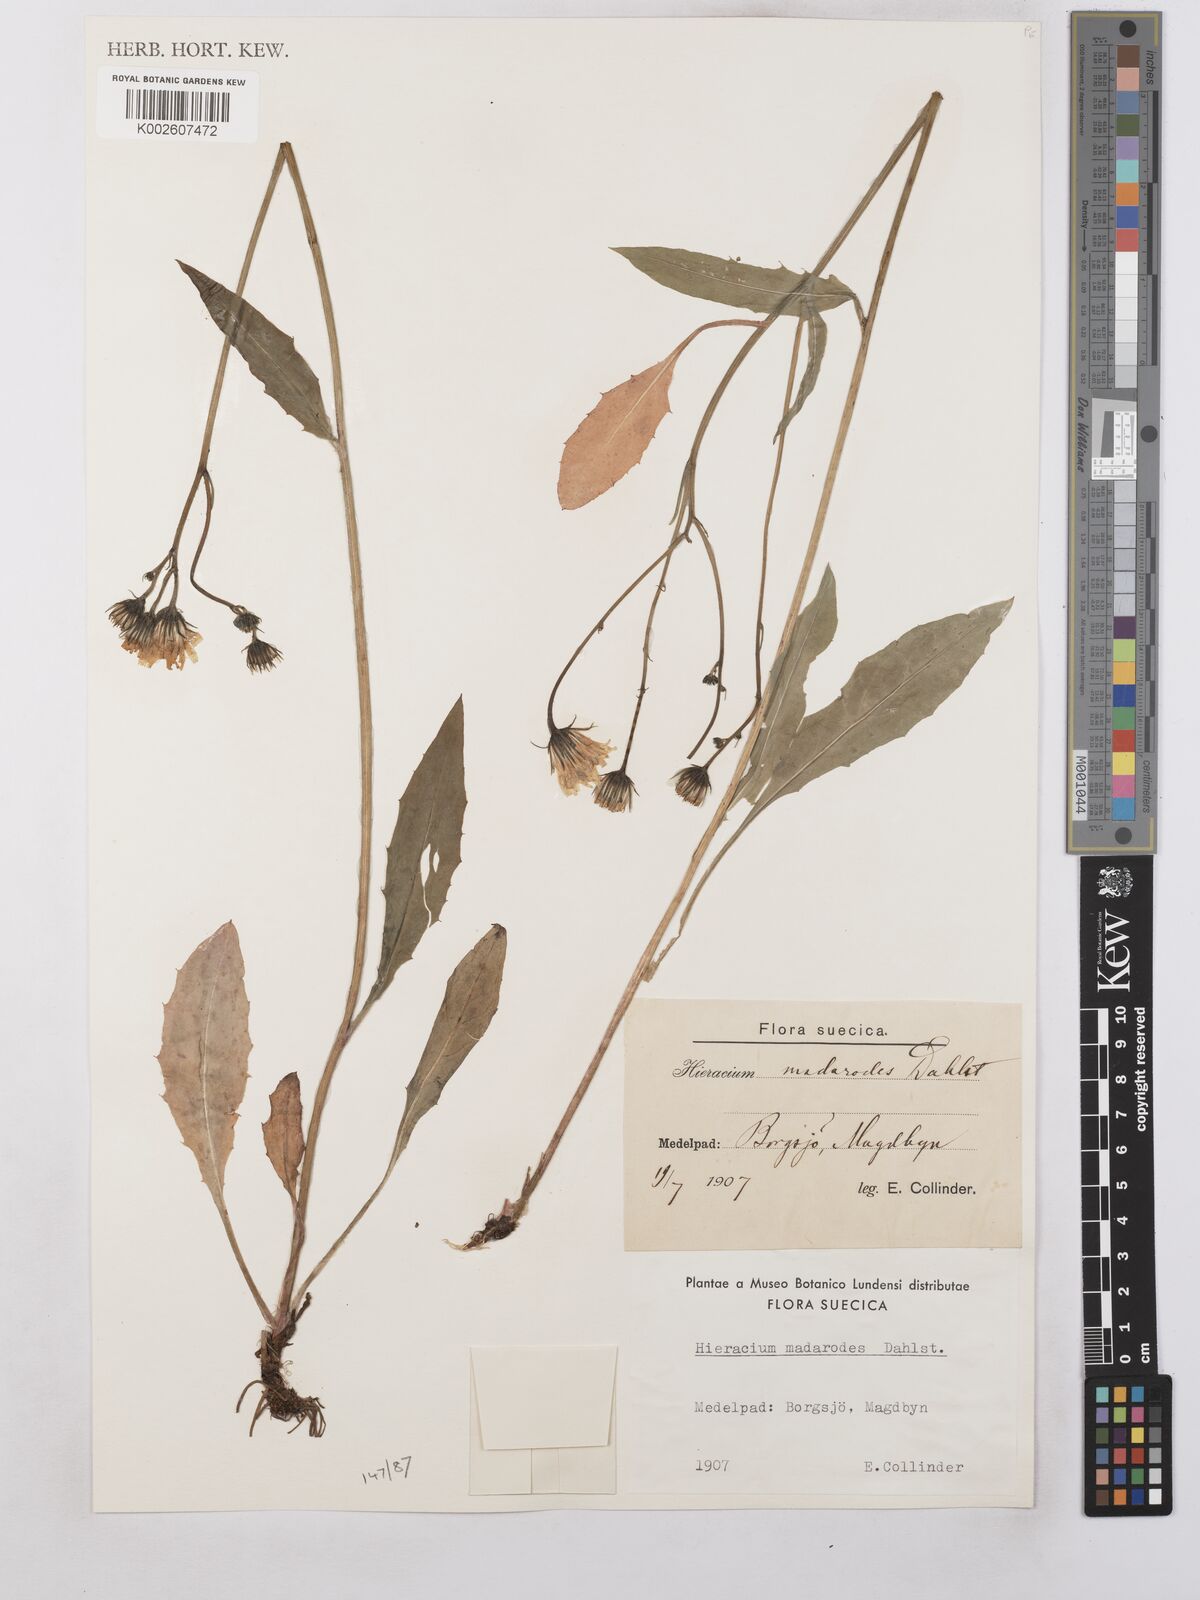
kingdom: Plantae
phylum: Tracheophyta
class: Magnoliopsida
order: Asterales
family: Asteraceae
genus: Hieracium
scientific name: Hieracium caesium
